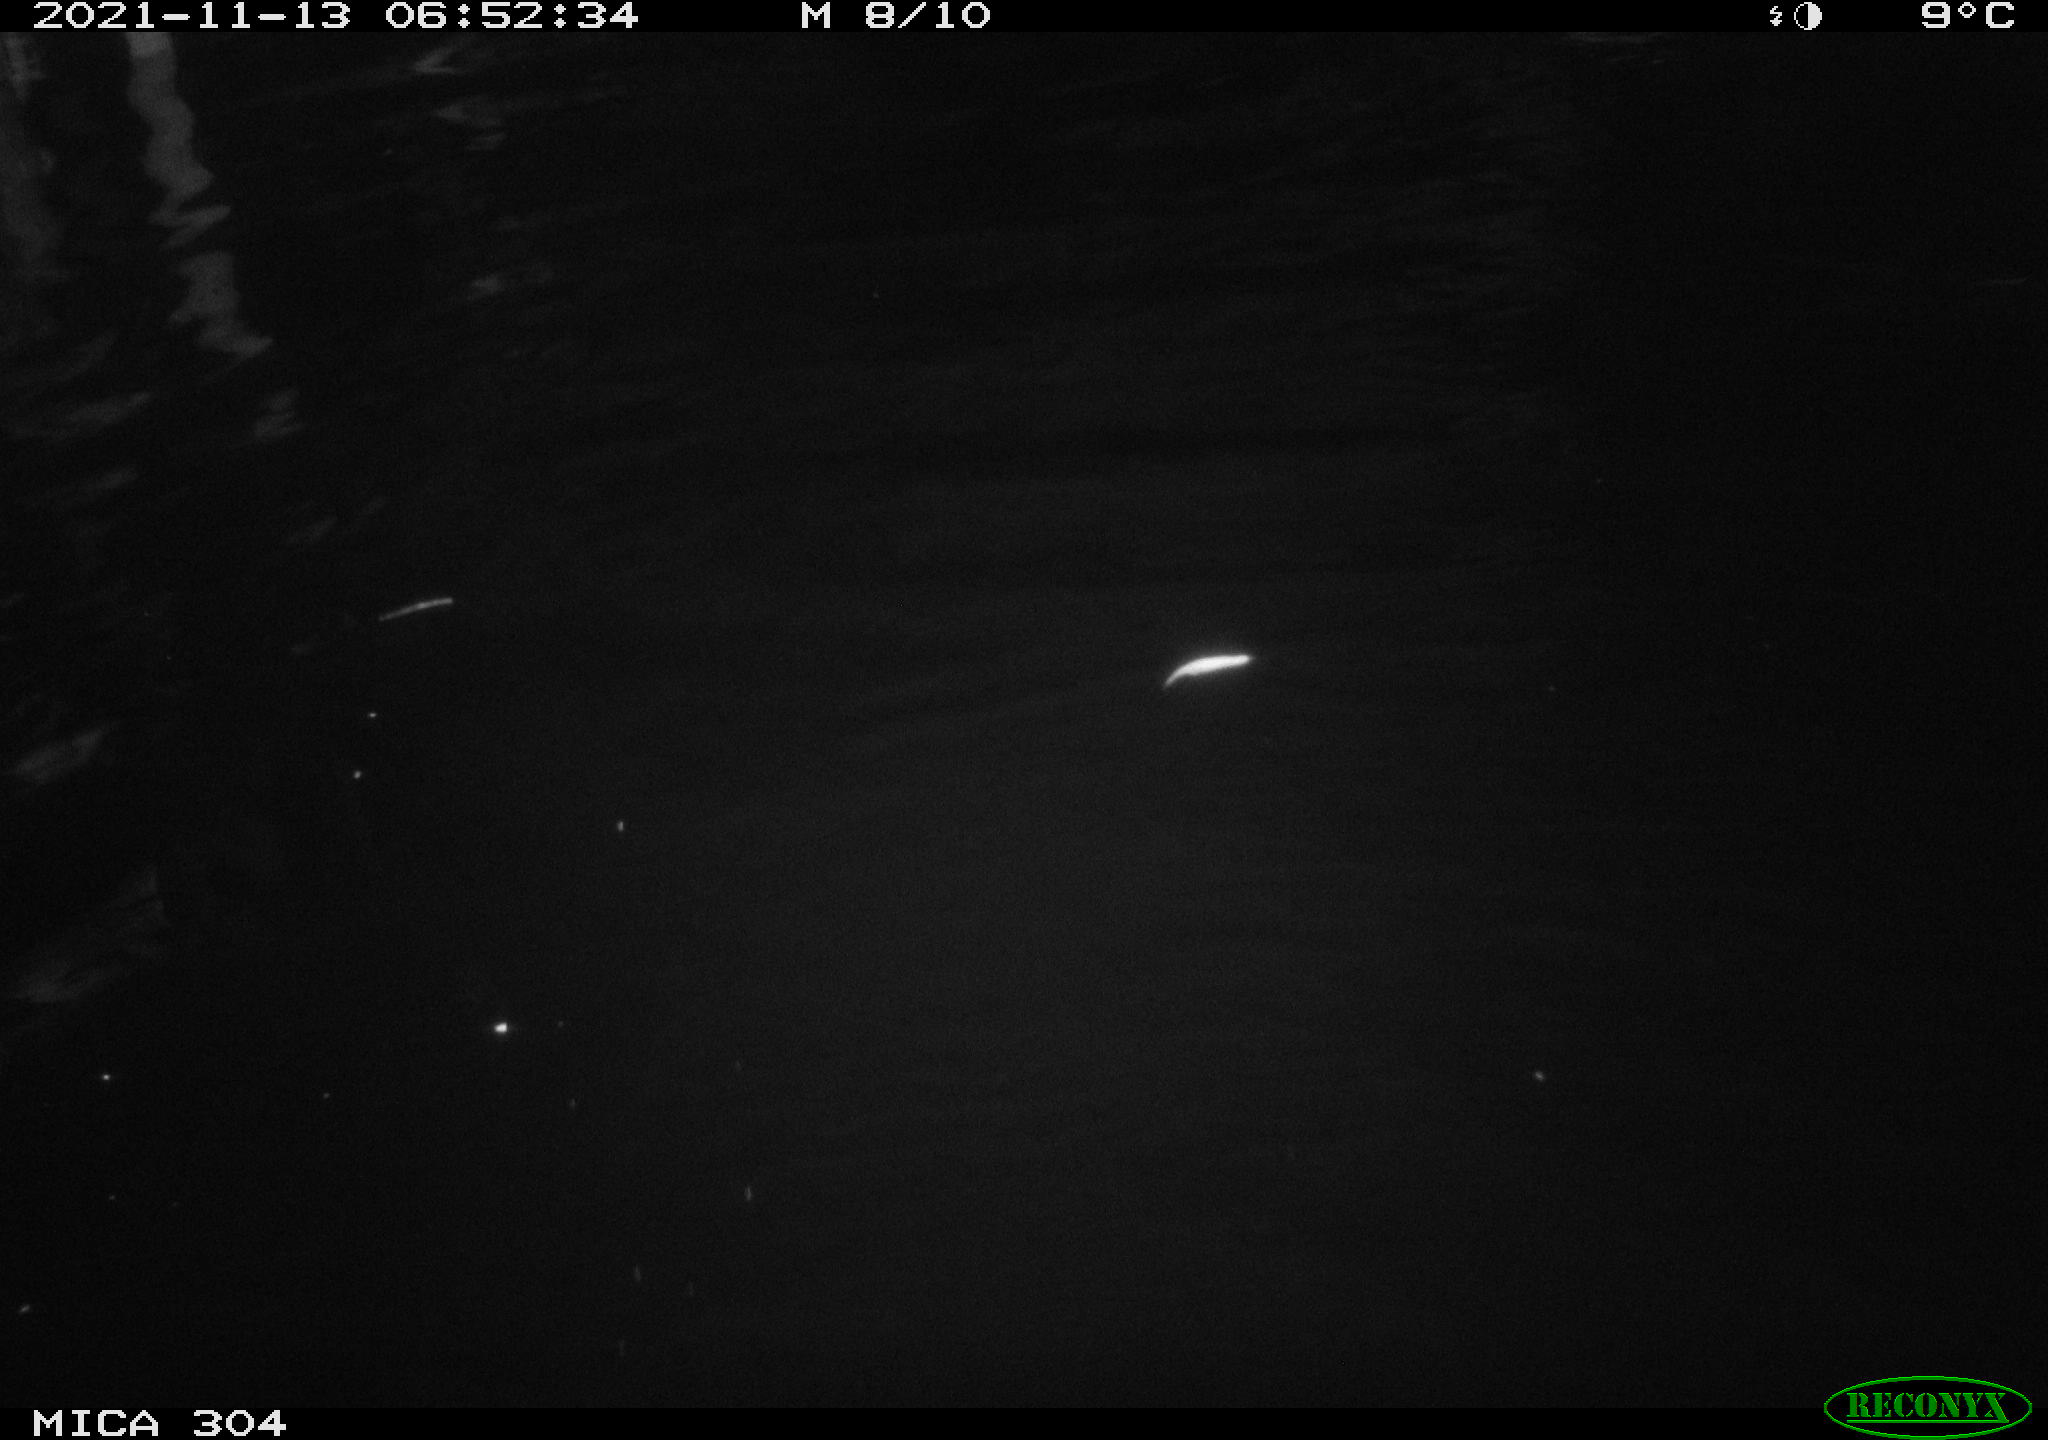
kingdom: Animalia
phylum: Chordata
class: Aves
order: Anseriformes
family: Anatidae
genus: Anas
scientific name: Anas platyrhynchos
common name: Mallard
